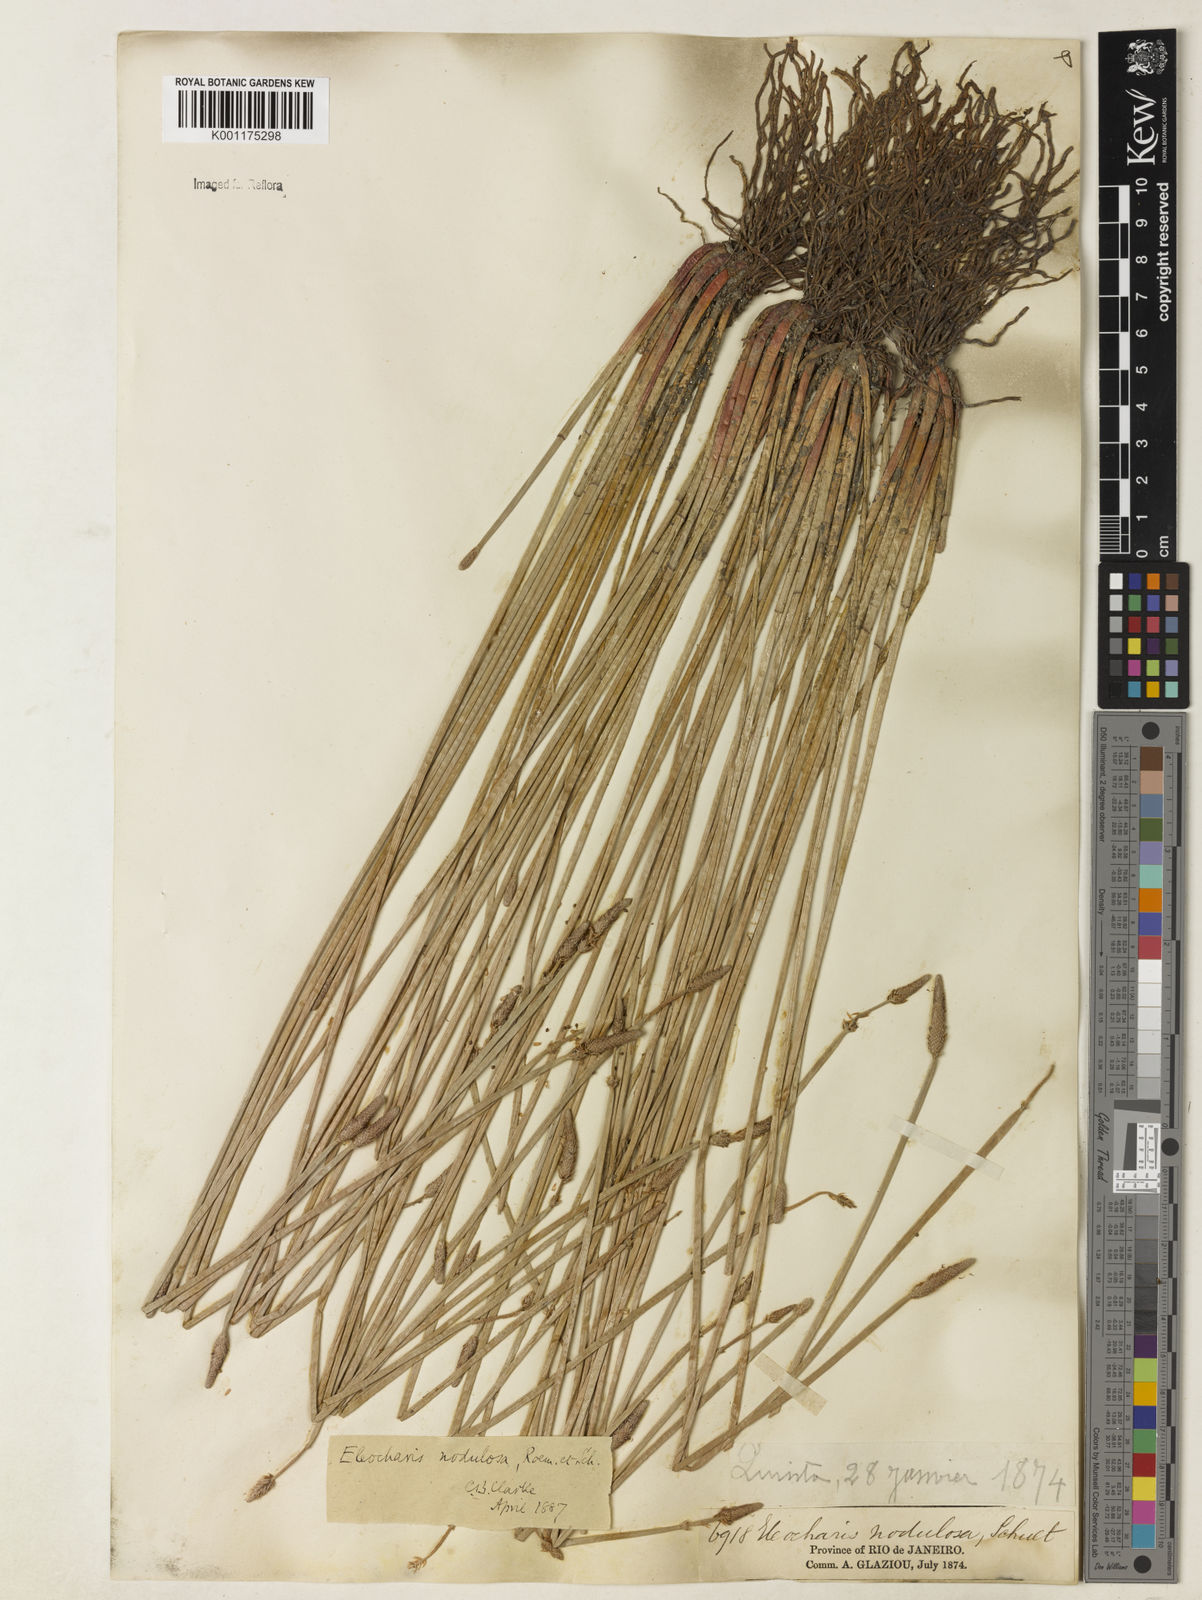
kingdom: Plantae
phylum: Tracheophyta
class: Liliopsida
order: Poales
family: Cyperaceae
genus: Eleocharis
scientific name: Eleocharis montana
